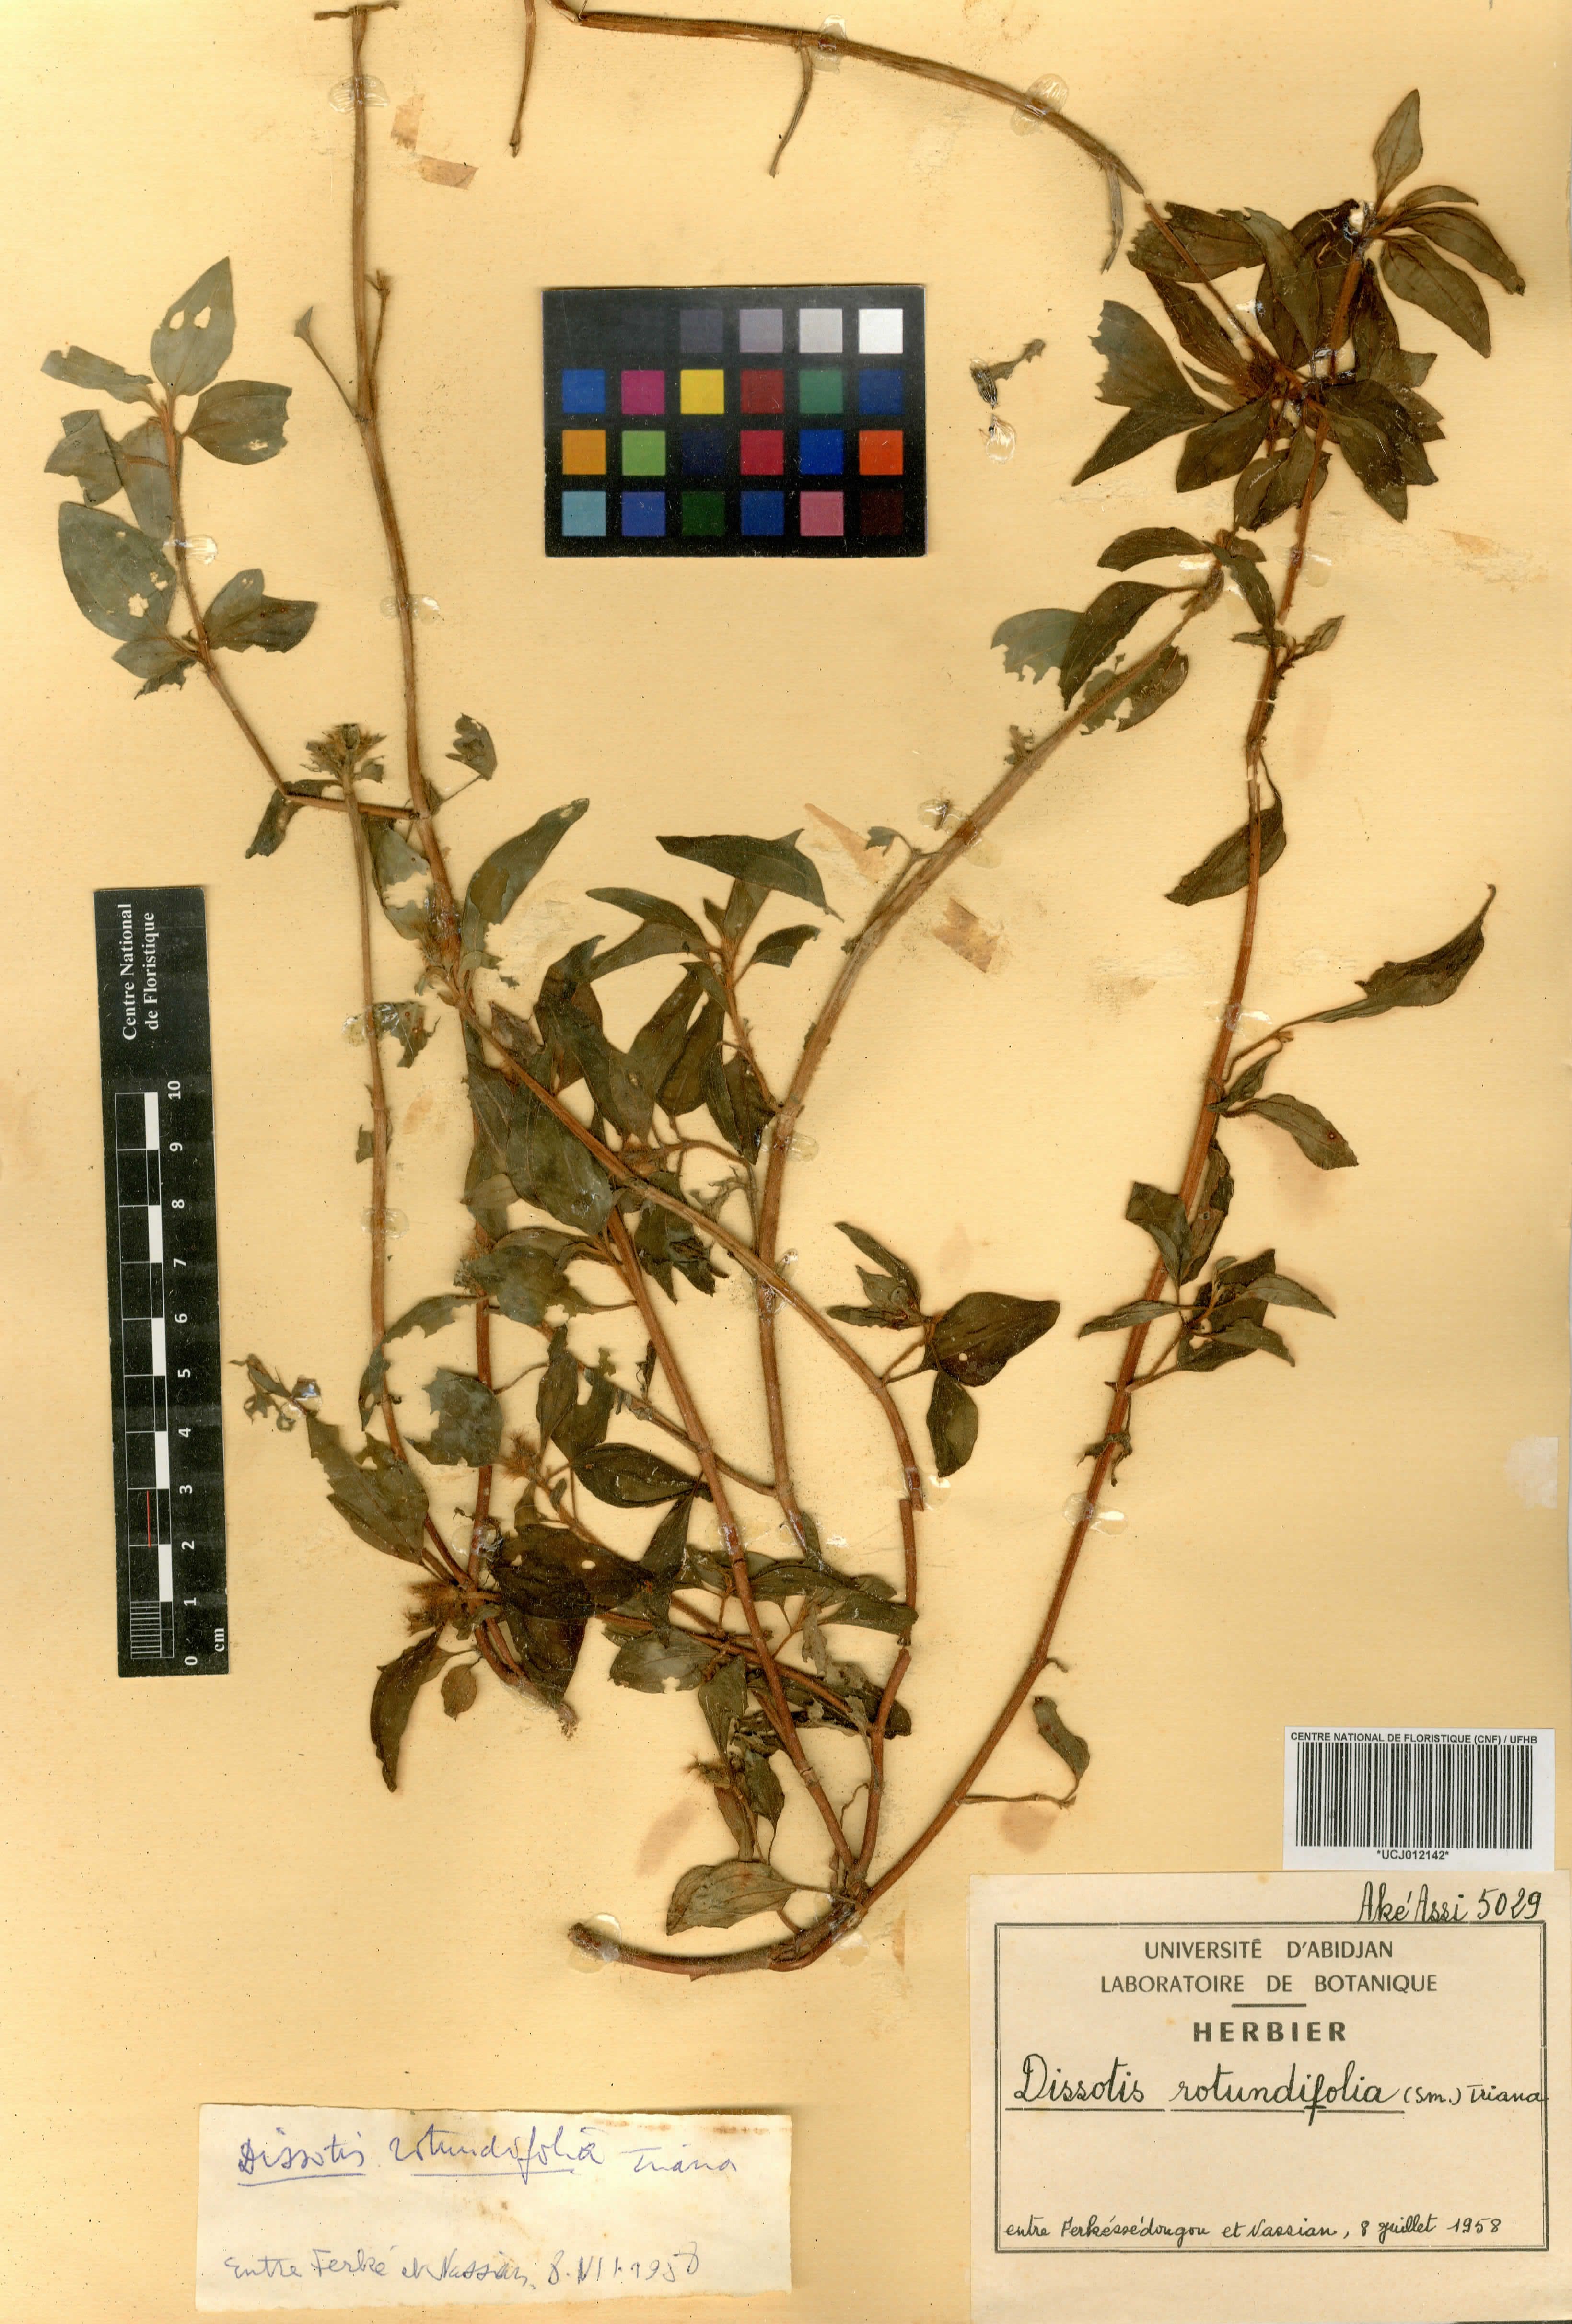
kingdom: Plantae
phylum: Tracheophyta
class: Magnoliopsida
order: Myrtales
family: Melastomataceae
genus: Heterotis
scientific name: Heterotis rotundifolia
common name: Pinklady
